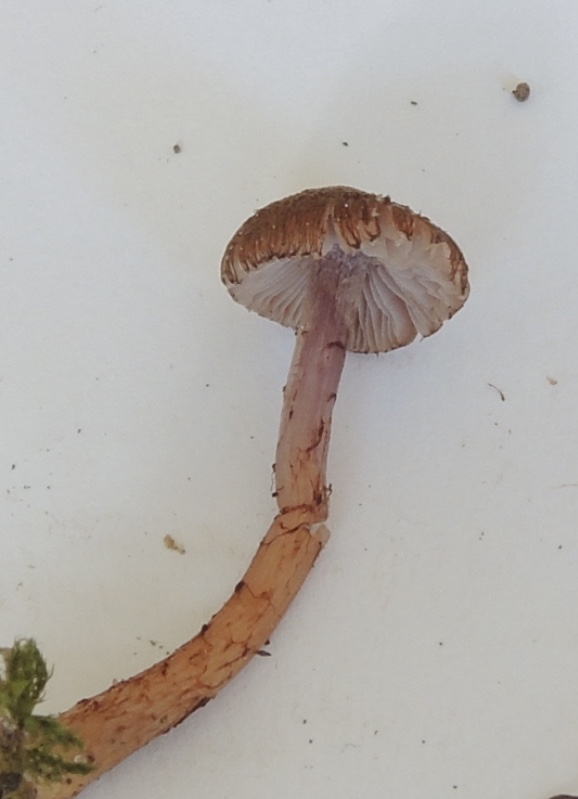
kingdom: Fungi
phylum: Basidiomycota
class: Agaricomycetes
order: Agaricales
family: Inocybaceae
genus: Inocybe
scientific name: Inocybe cincinnata
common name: lillabladet trævlhat
